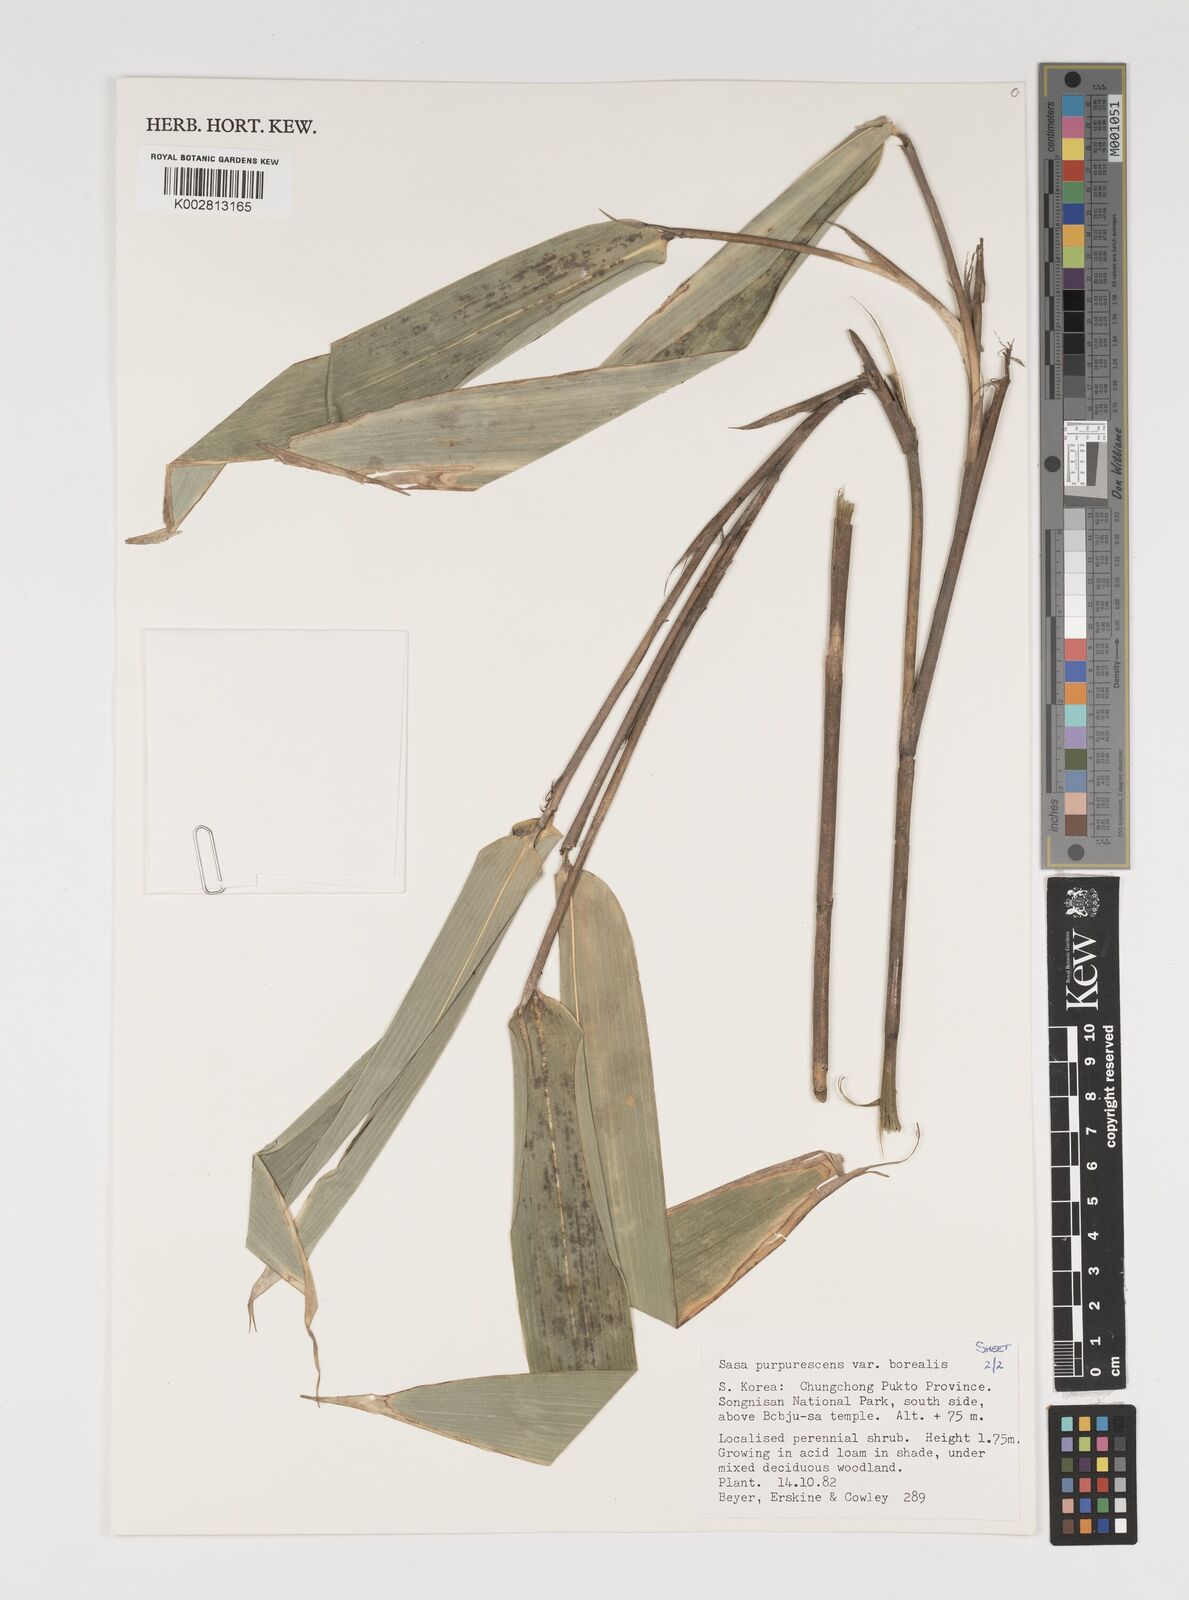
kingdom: Plantae
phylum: Tracheophyta
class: Liliopsida
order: Poales
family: Poaceae
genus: Sasa
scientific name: Sasa
